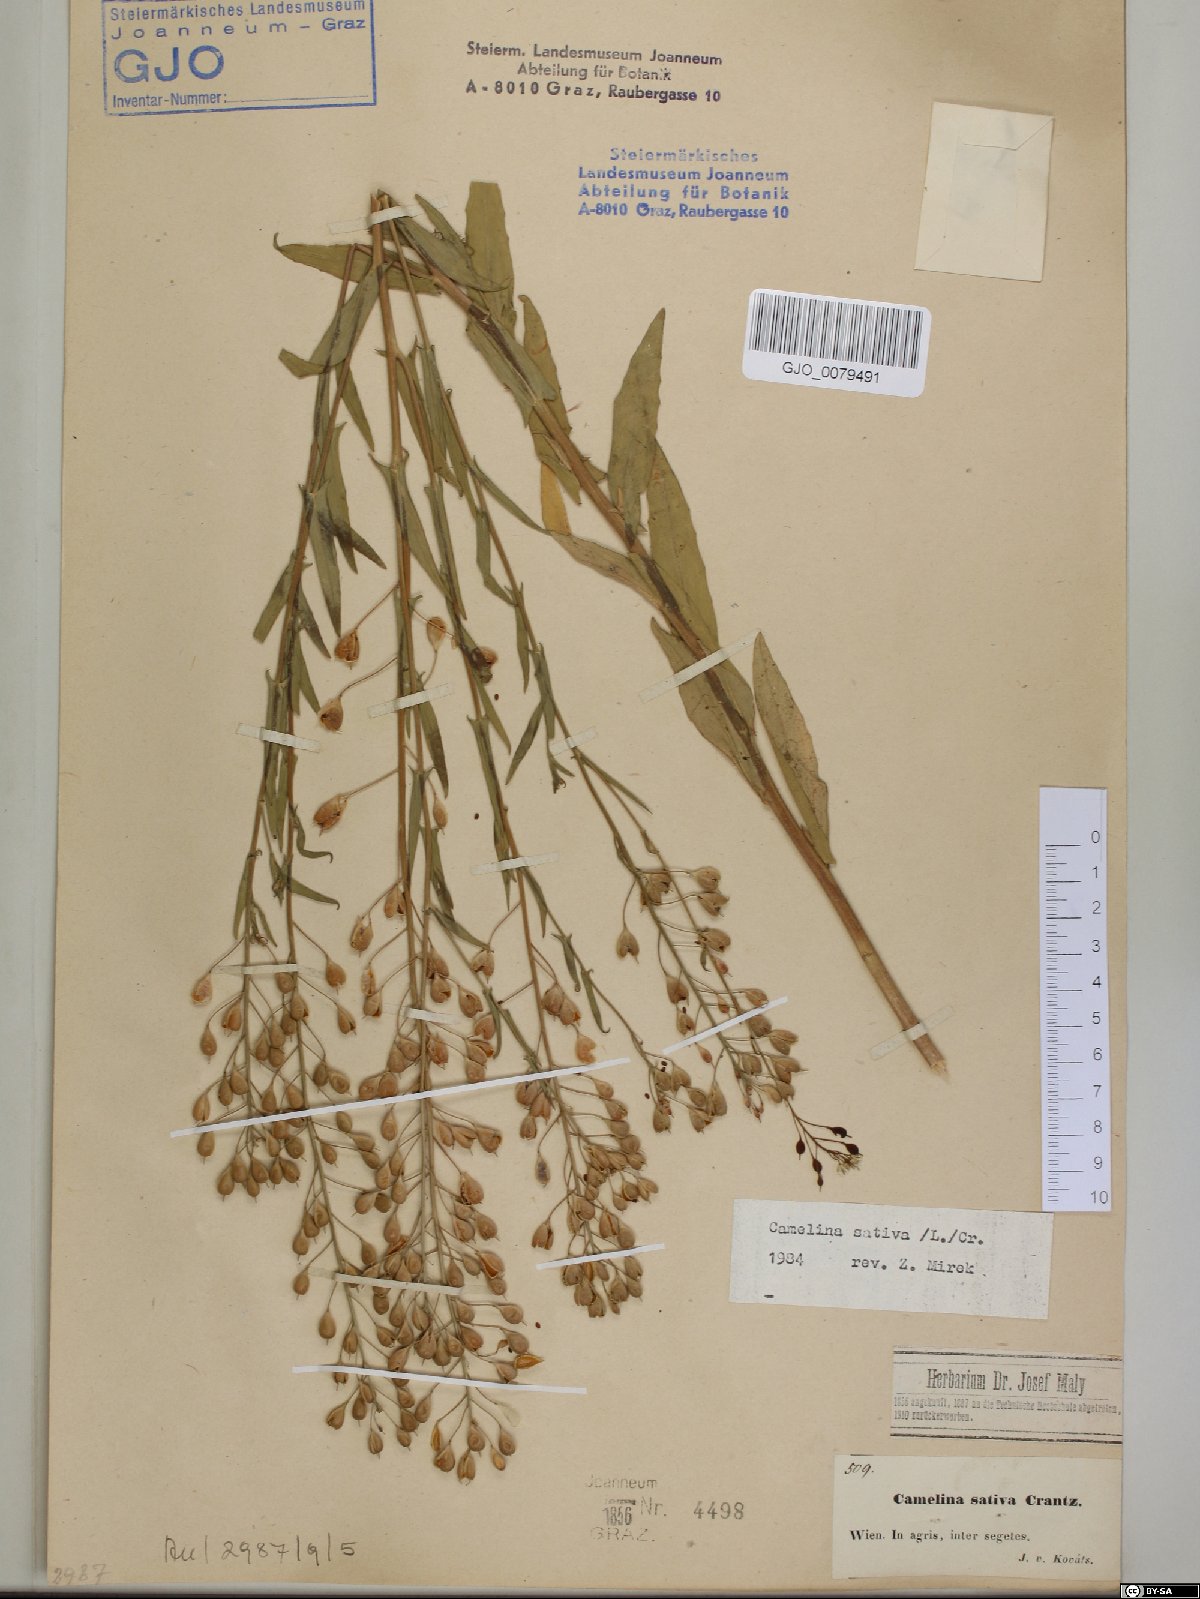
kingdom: Plantae
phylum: Tracheophyta
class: Magnoliopsida
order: Brassicales
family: Brassicaceae
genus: Camelina
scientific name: Camelina sativa
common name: Gold-of-pleasure
